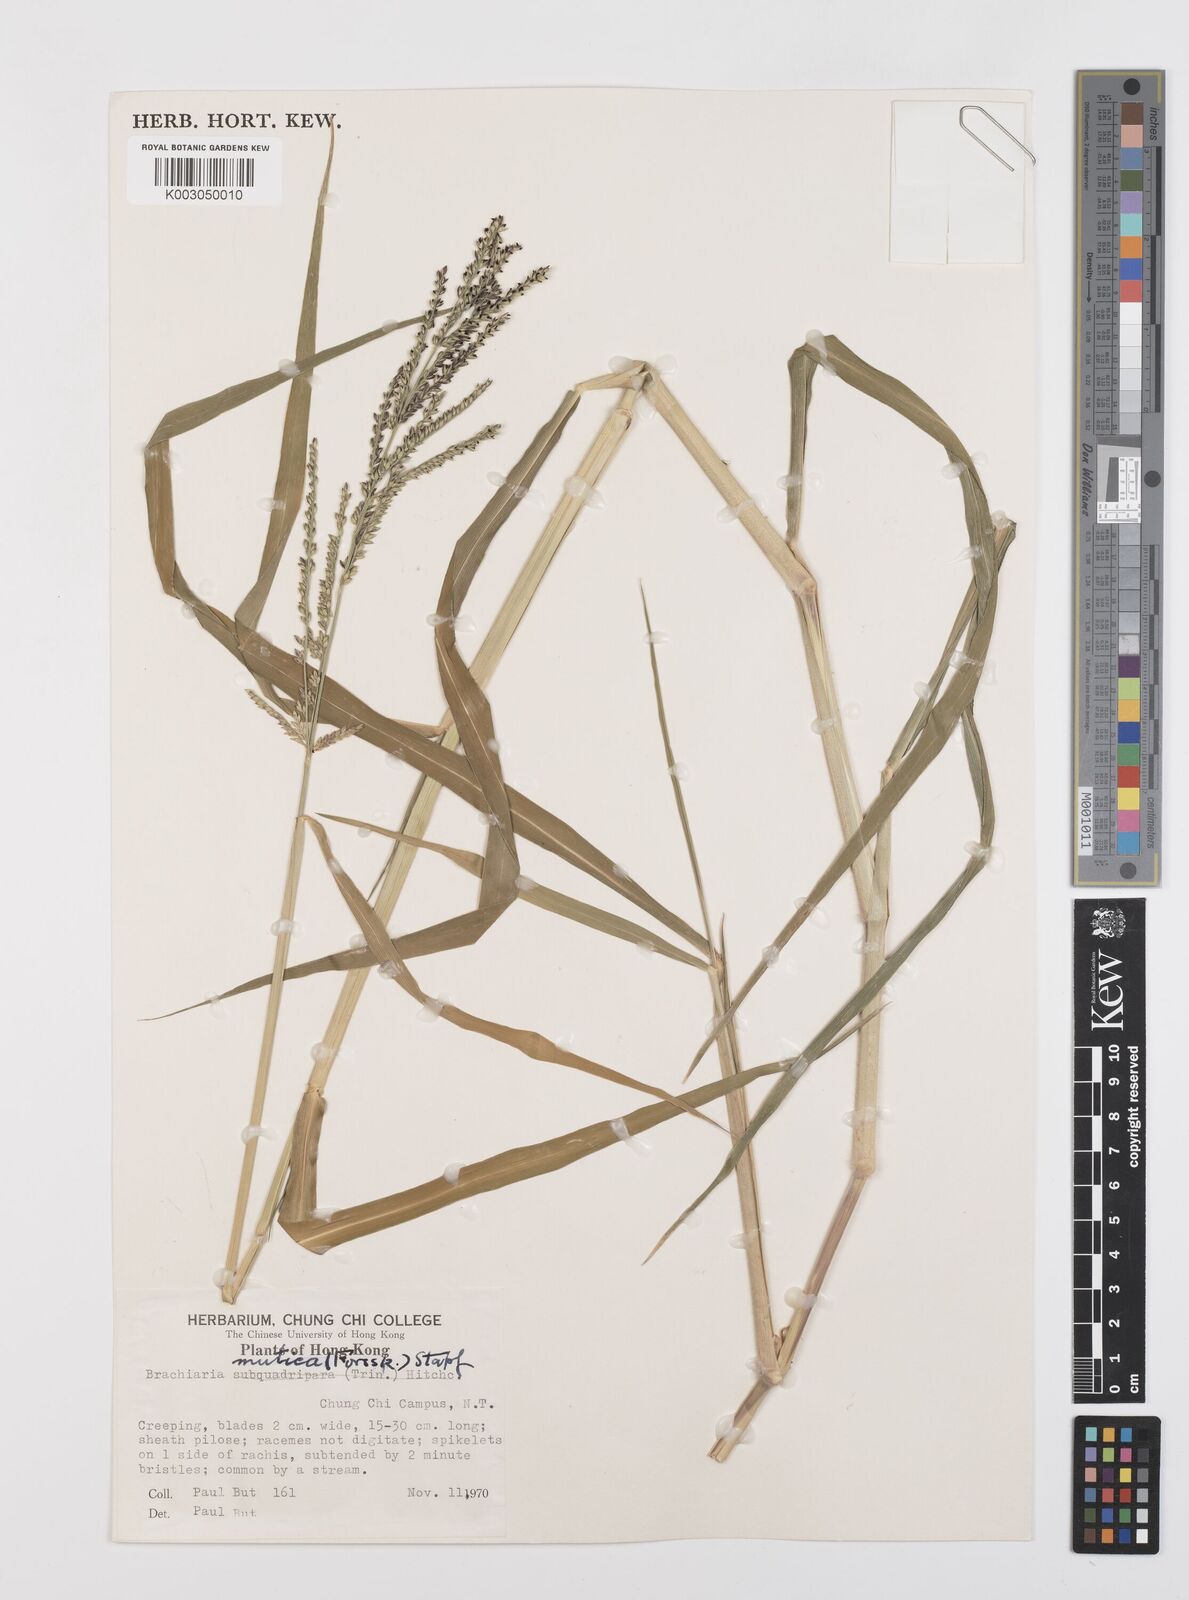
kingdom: Plantae
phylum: Tracheophyta
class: Liliopsida
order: Poales
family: Poaceae
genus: Urochloa
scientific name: Urochloa mutica
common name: Para grass
